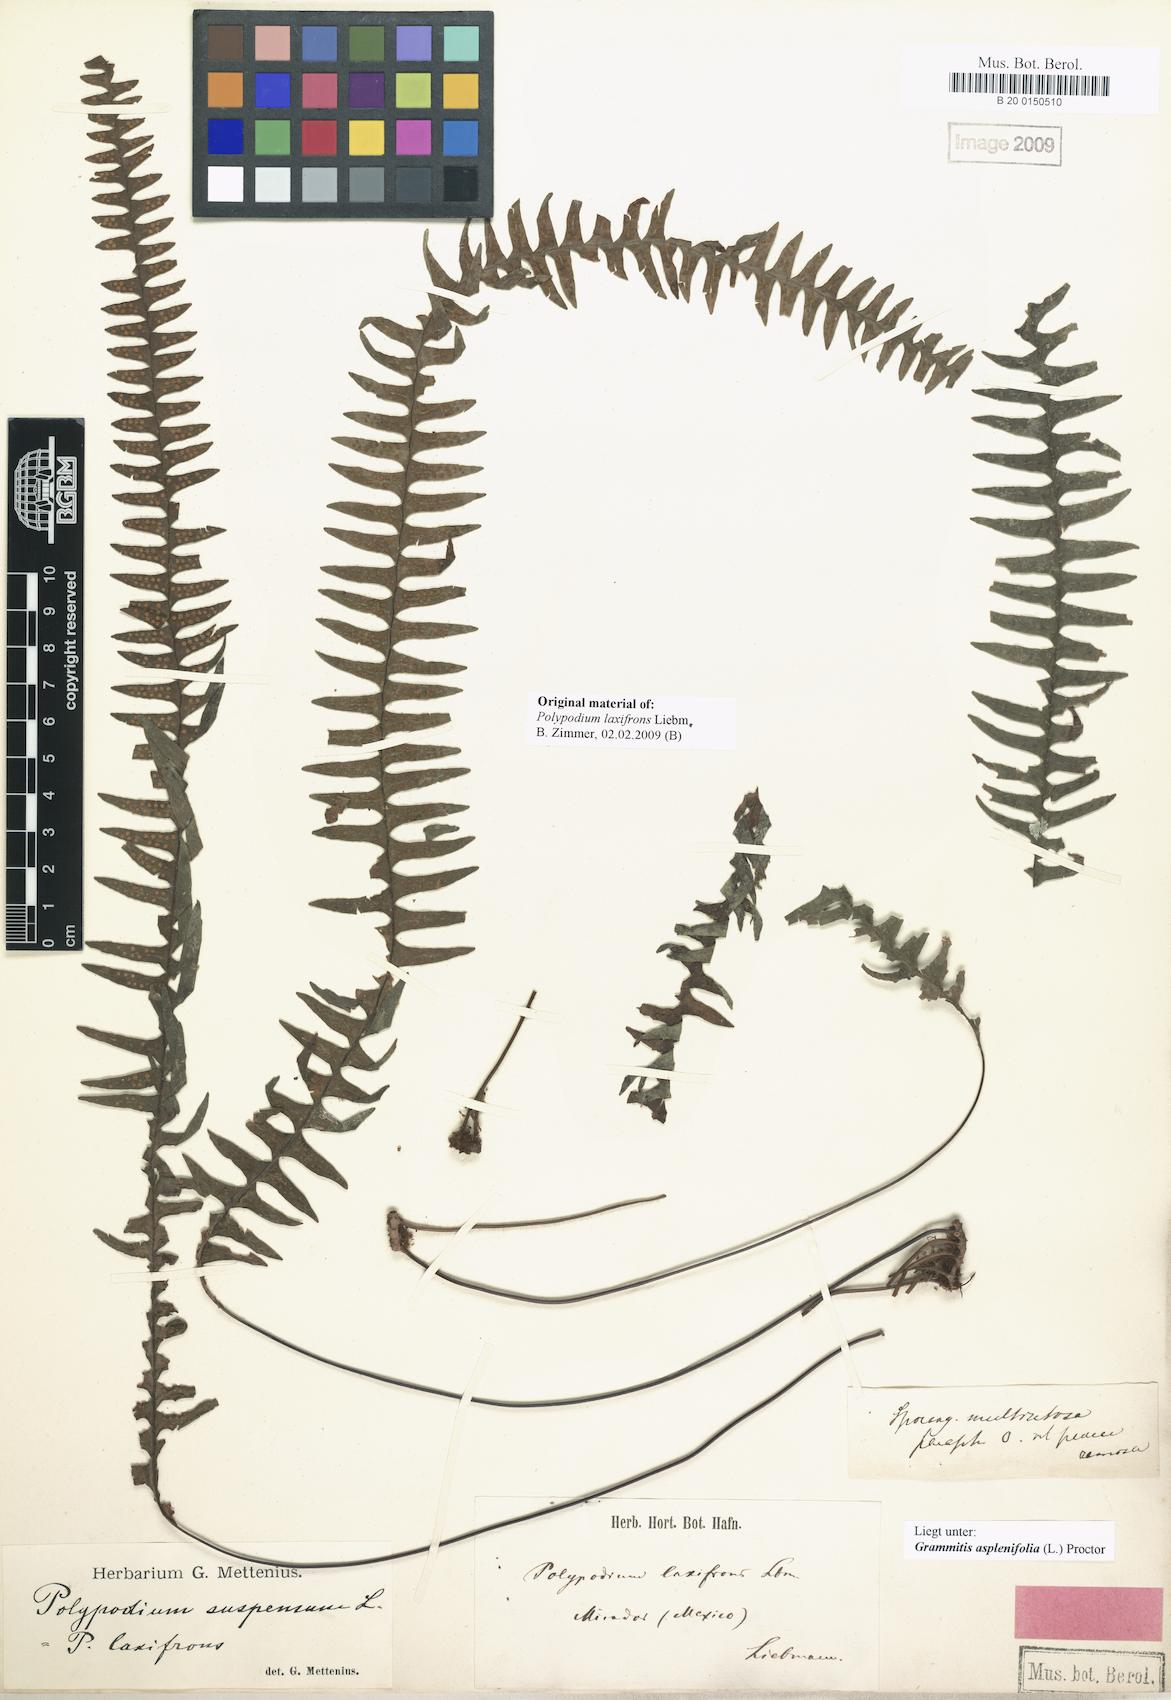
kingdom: Plantae
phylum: Tracheophyta
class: Polypodiopsida
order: Polypodiales
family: Polypodiaceae
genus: Terpsichore
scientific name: Terpsichore asplenifolia
